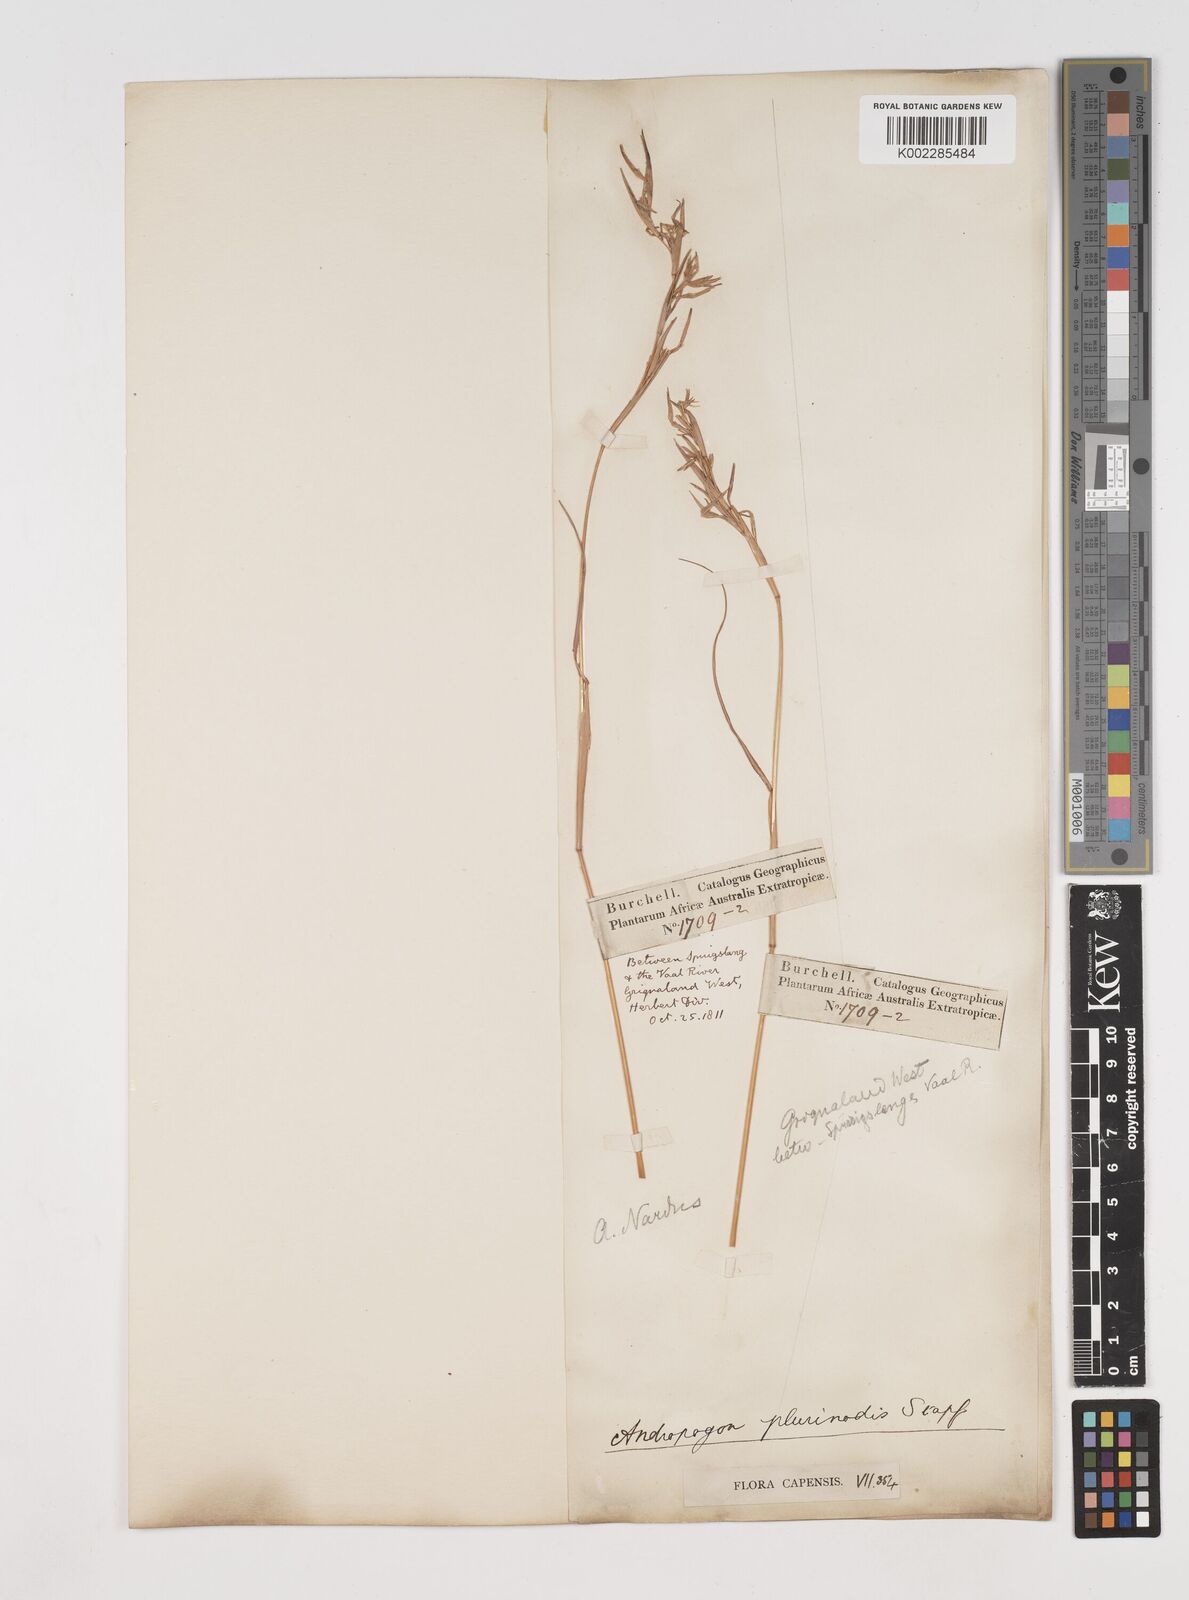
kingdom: Plantae
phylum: Tracheophyta
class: Liliopsida
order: Poales
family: Poaceae
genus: Cymbopogon
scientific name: Cymbopogon pospischilii
